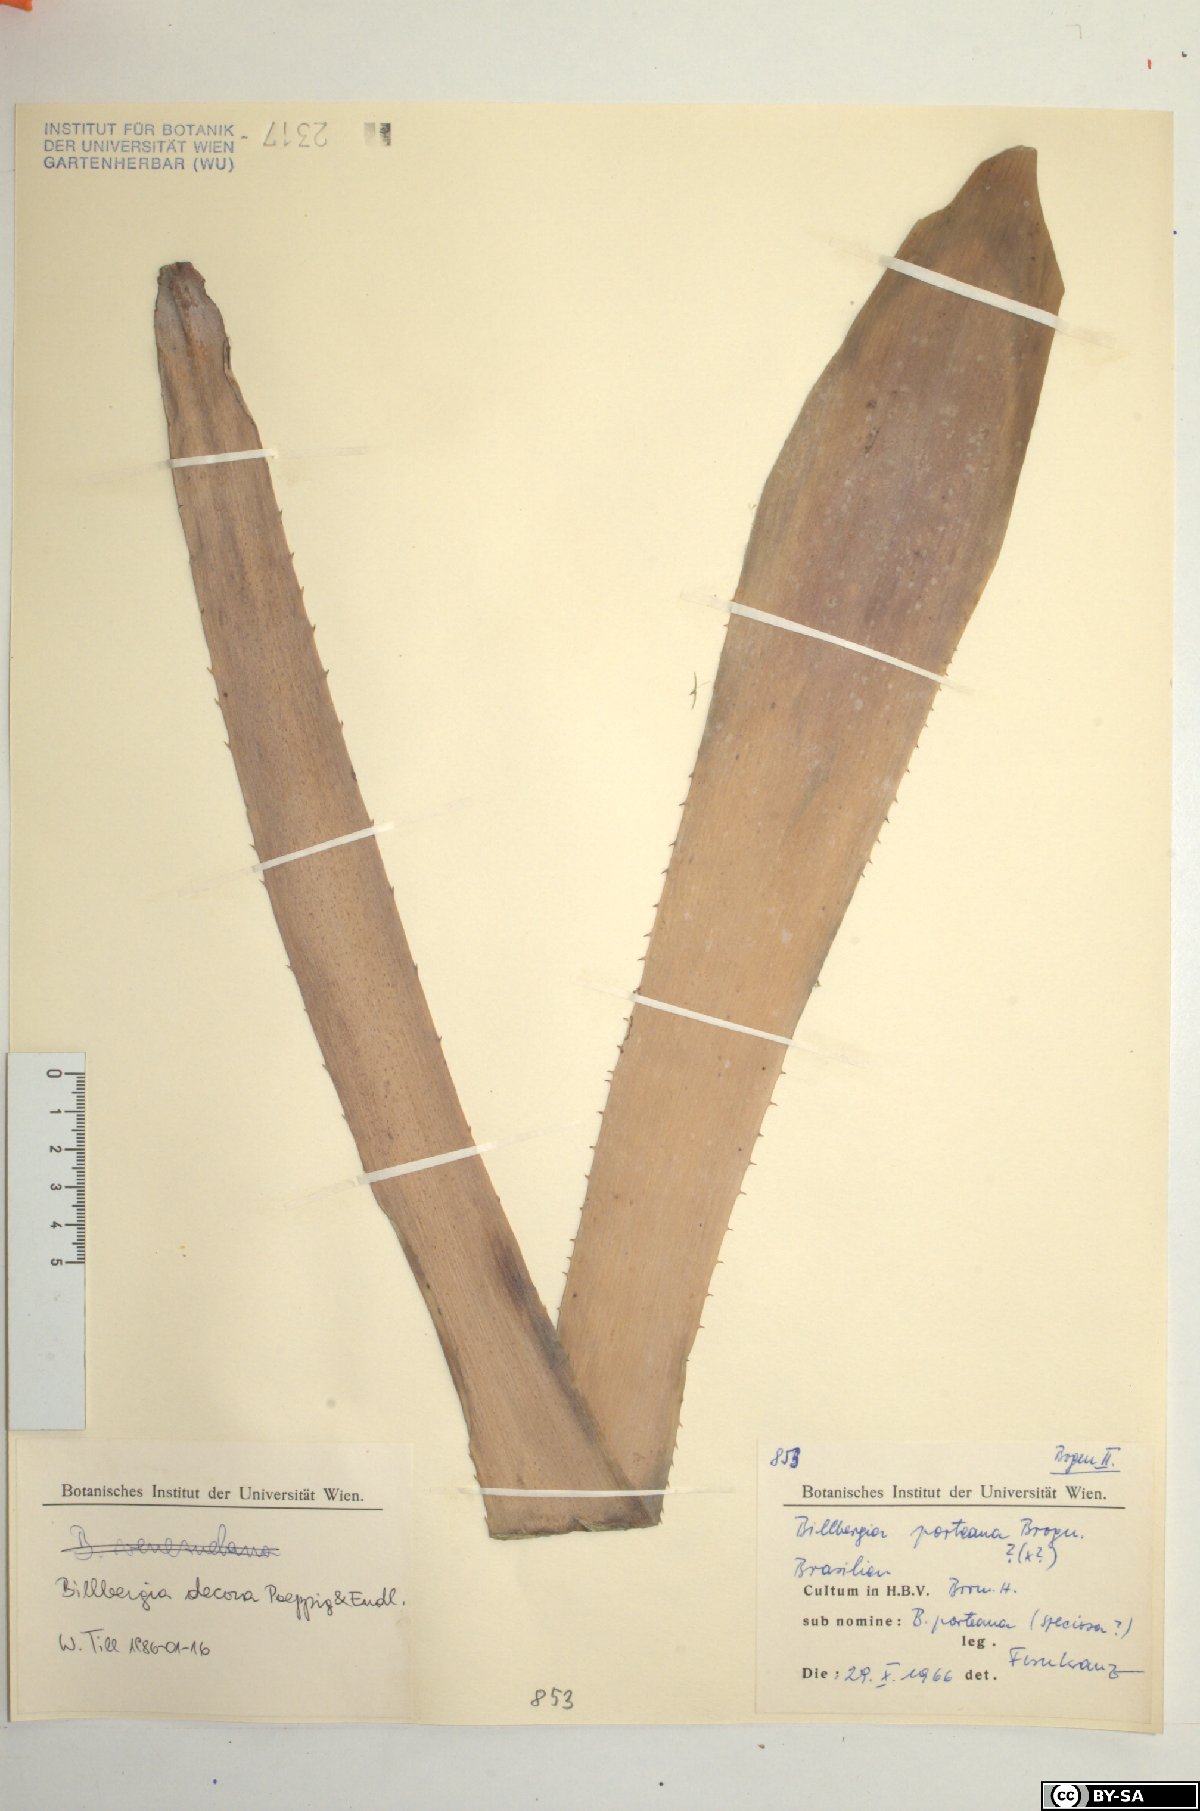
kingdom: Plantae
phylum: Tracheophyta
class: Liliopsida
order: Poales
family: Bromeliaceae
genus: Billbergia
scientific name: Billbergia decora
